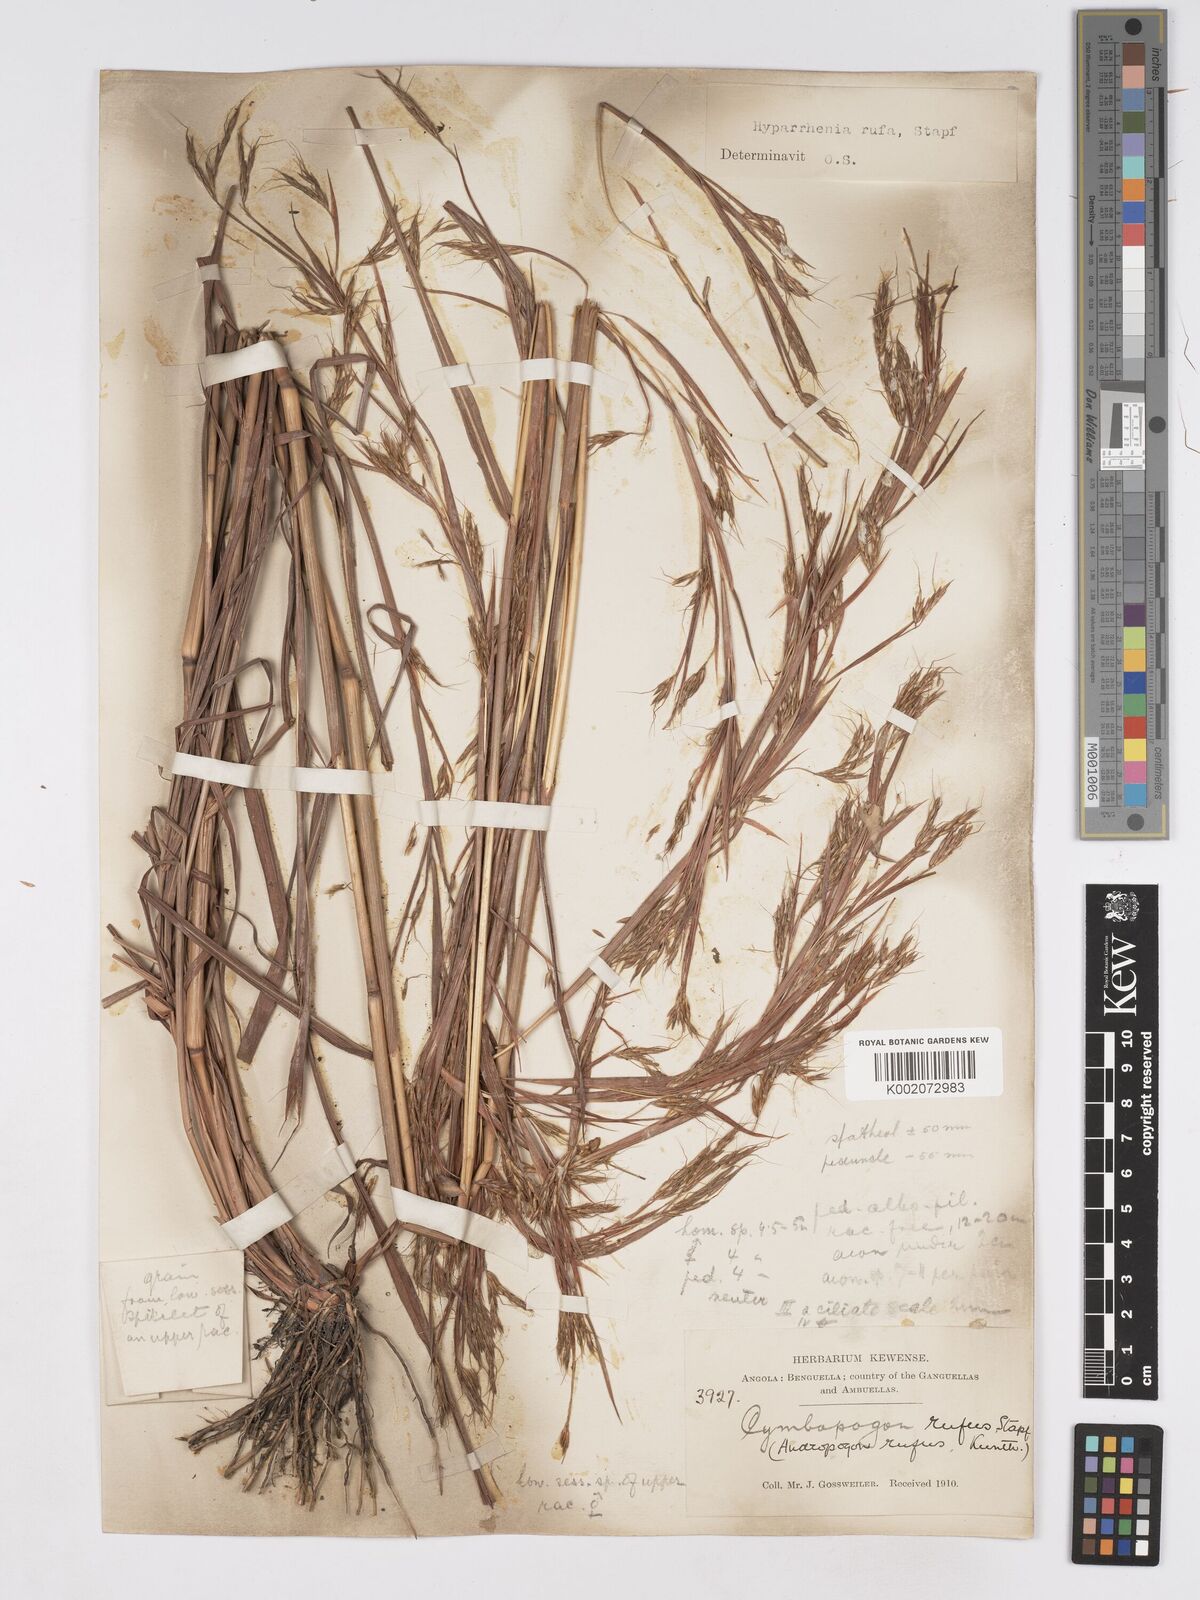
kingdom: Plantae
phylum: Tracheophyta
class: Liliopsida
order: Poales
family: Poaceae
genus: Hyparrhenia
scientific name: Hyparrhenia rufa
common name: Jaraguagrass
